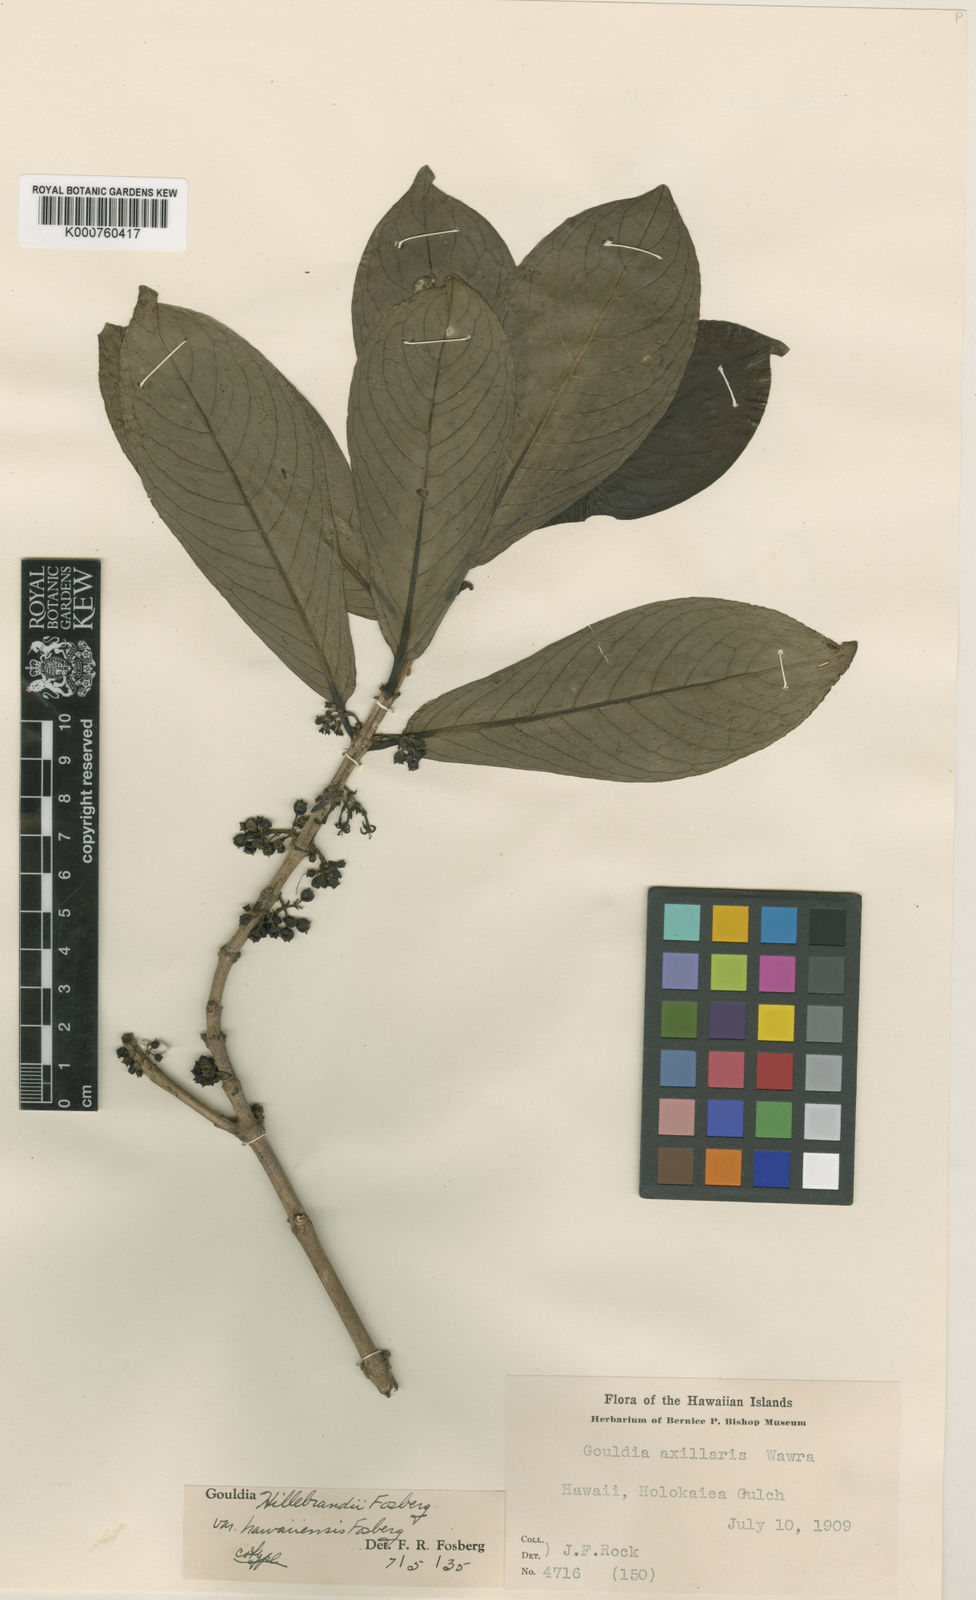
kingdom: Plantae
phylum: Tracheophyta
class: Magnoliopsida
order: Gentianales
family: Rubiaceae
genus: Kadua
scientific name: Kadua axillaris
